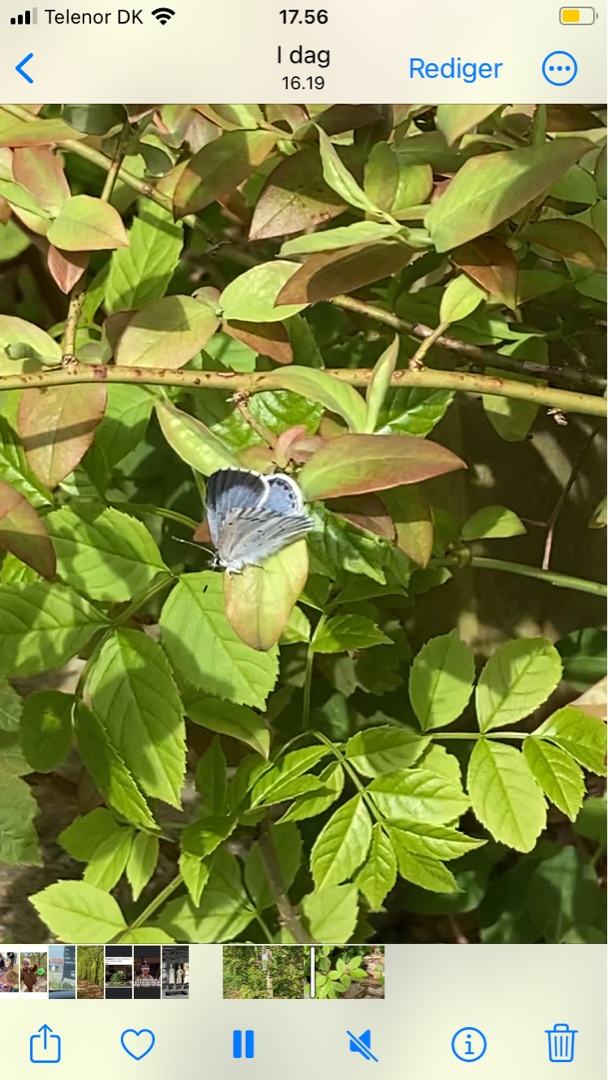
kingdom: Animalia
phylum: Arthropoda
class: Insecta
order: Lepidoptera
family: Lycaenidae
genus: Celastrina
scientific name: Celastrina argiolus
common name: Skovblåfugl
